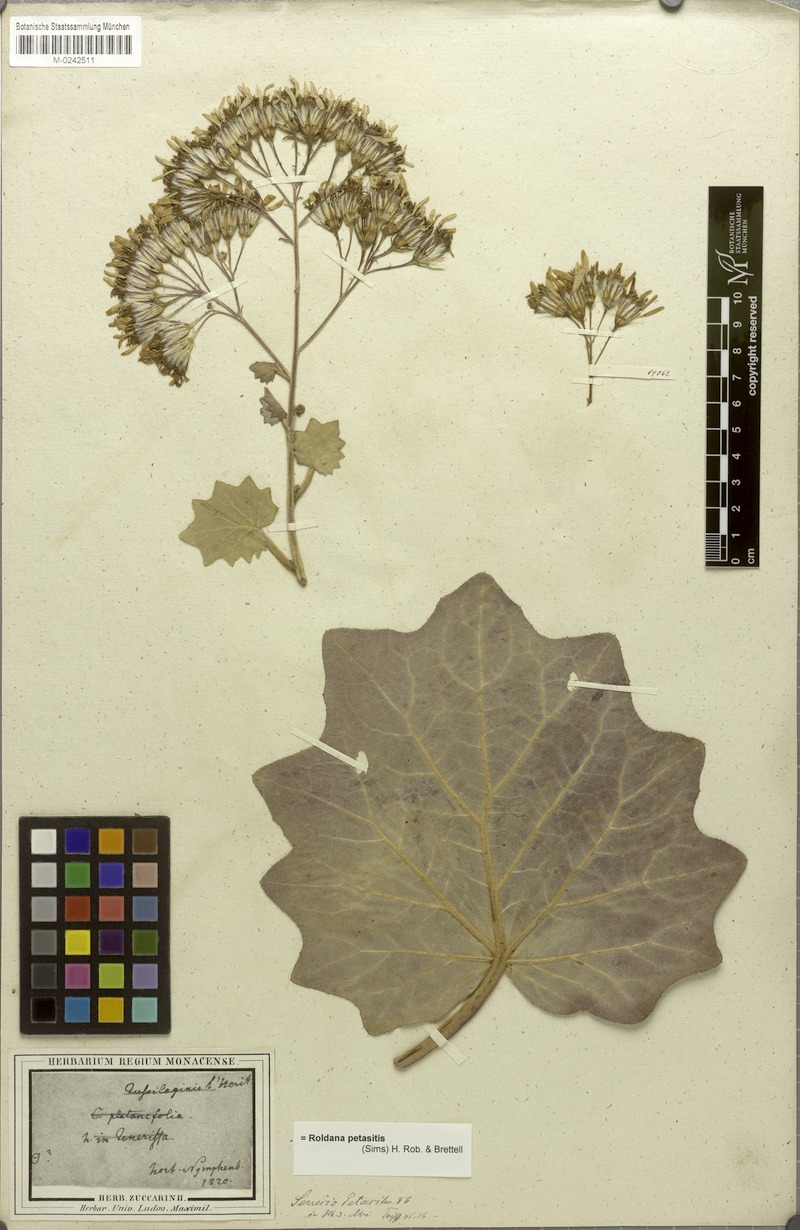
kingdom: Plantae
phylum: Tracheophyta
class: Magnoliopsida
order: Asterales
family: Asteraceae
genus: Roldana
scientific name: Roldana petasitis
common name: California-geranium
